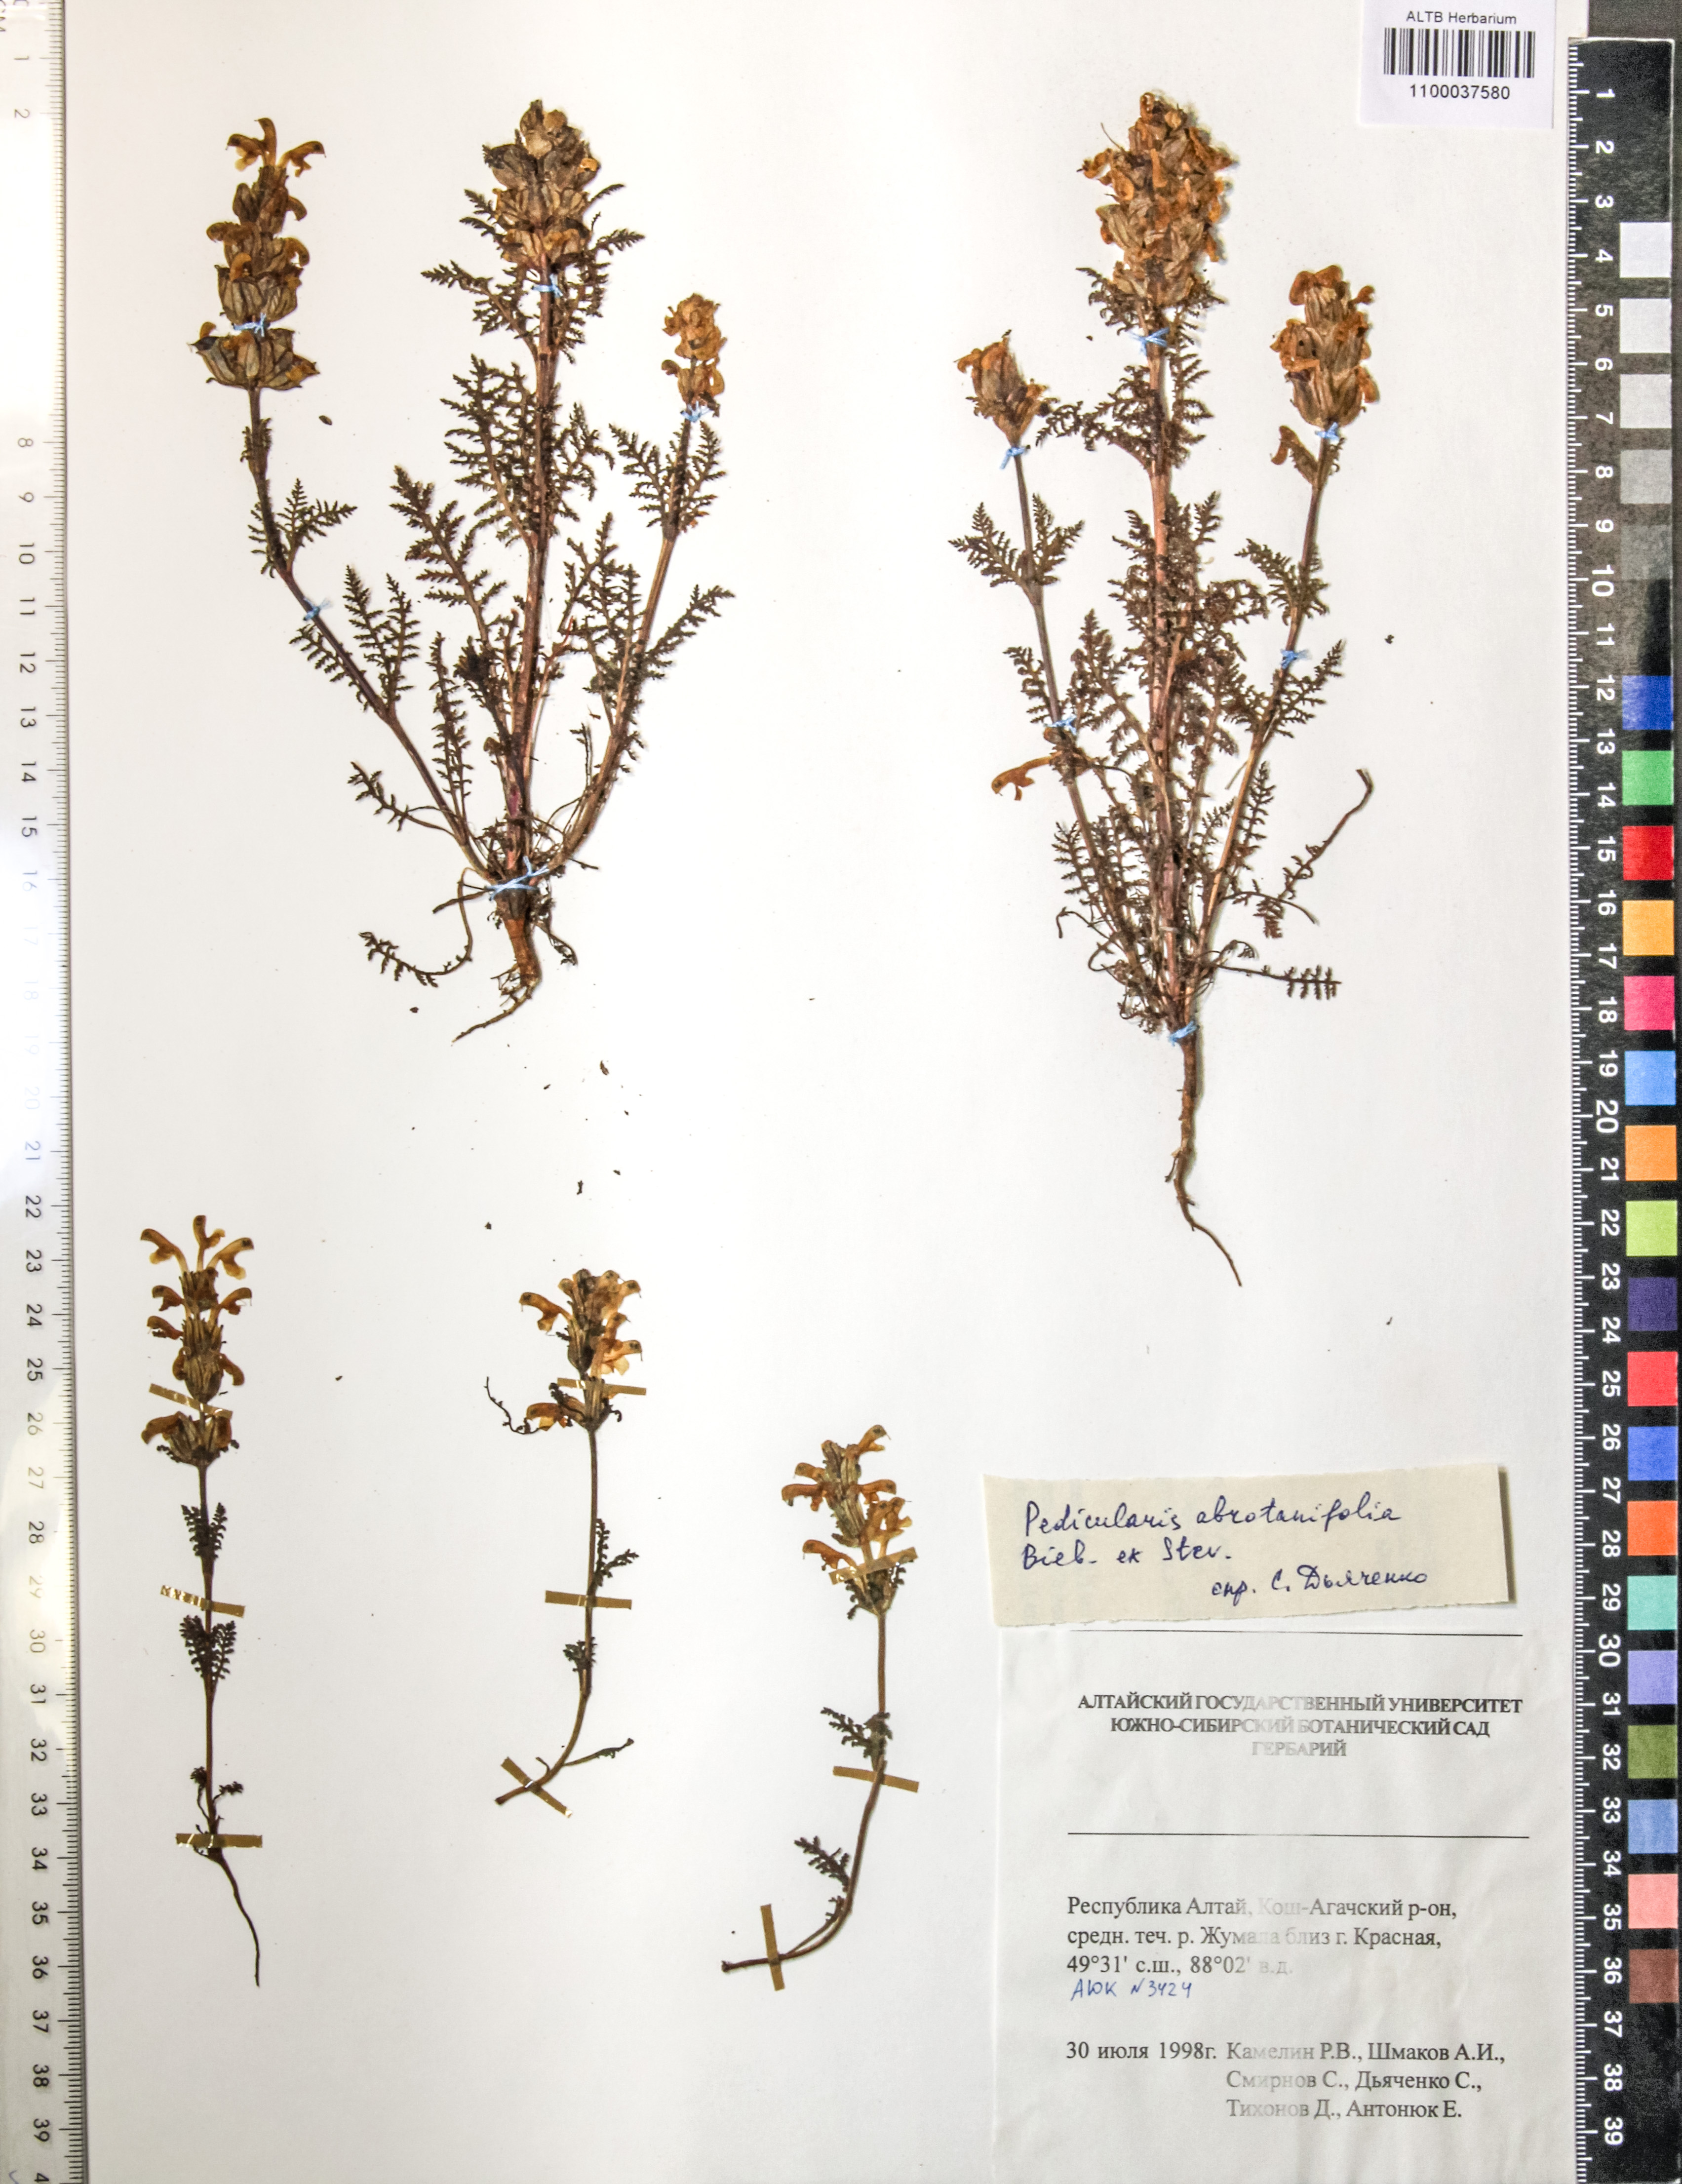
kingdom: Plantae
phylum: Tracheophyta
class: Magnoliopsida
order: Lamiales
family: Orobanchaceae
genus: Pedicularis
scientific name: Pedicularis abrotanifolia
